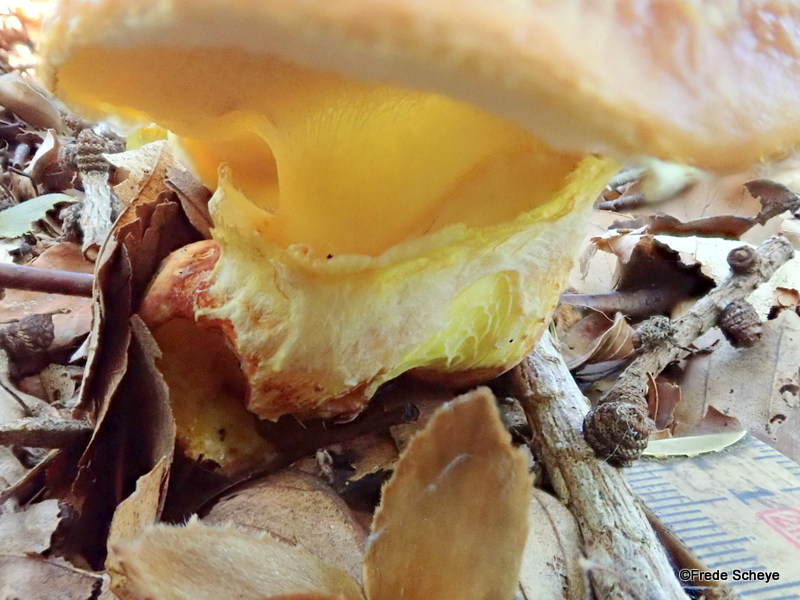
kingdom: Fungi
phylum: Basidiomycota
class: Agaricomycetes
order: Boletales
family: Suillaceae
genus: Suillus
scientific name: Suillus grevillei
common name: lærke-slimrørhat
